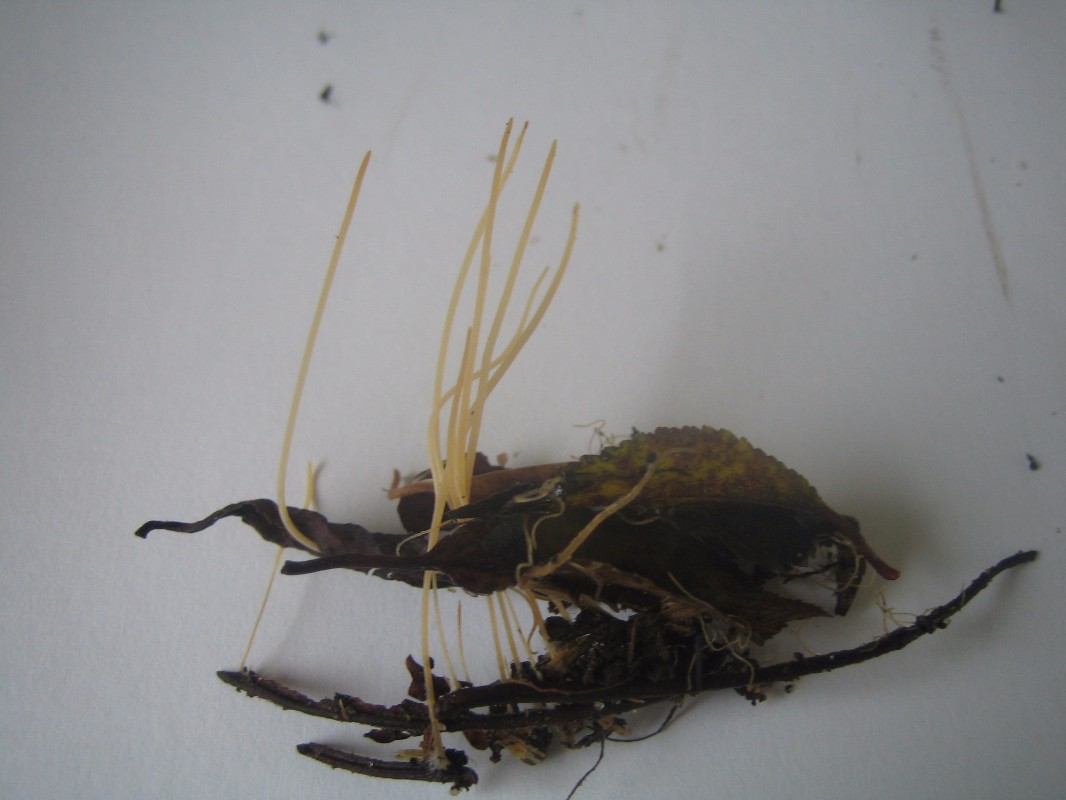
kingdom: Fungi
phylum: Basidiomycota
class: Agaricomycetes
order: Agaricales
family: Typhulaceae
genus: Typhula
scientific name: Typhula juncea
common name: trådagtig rørkølle
